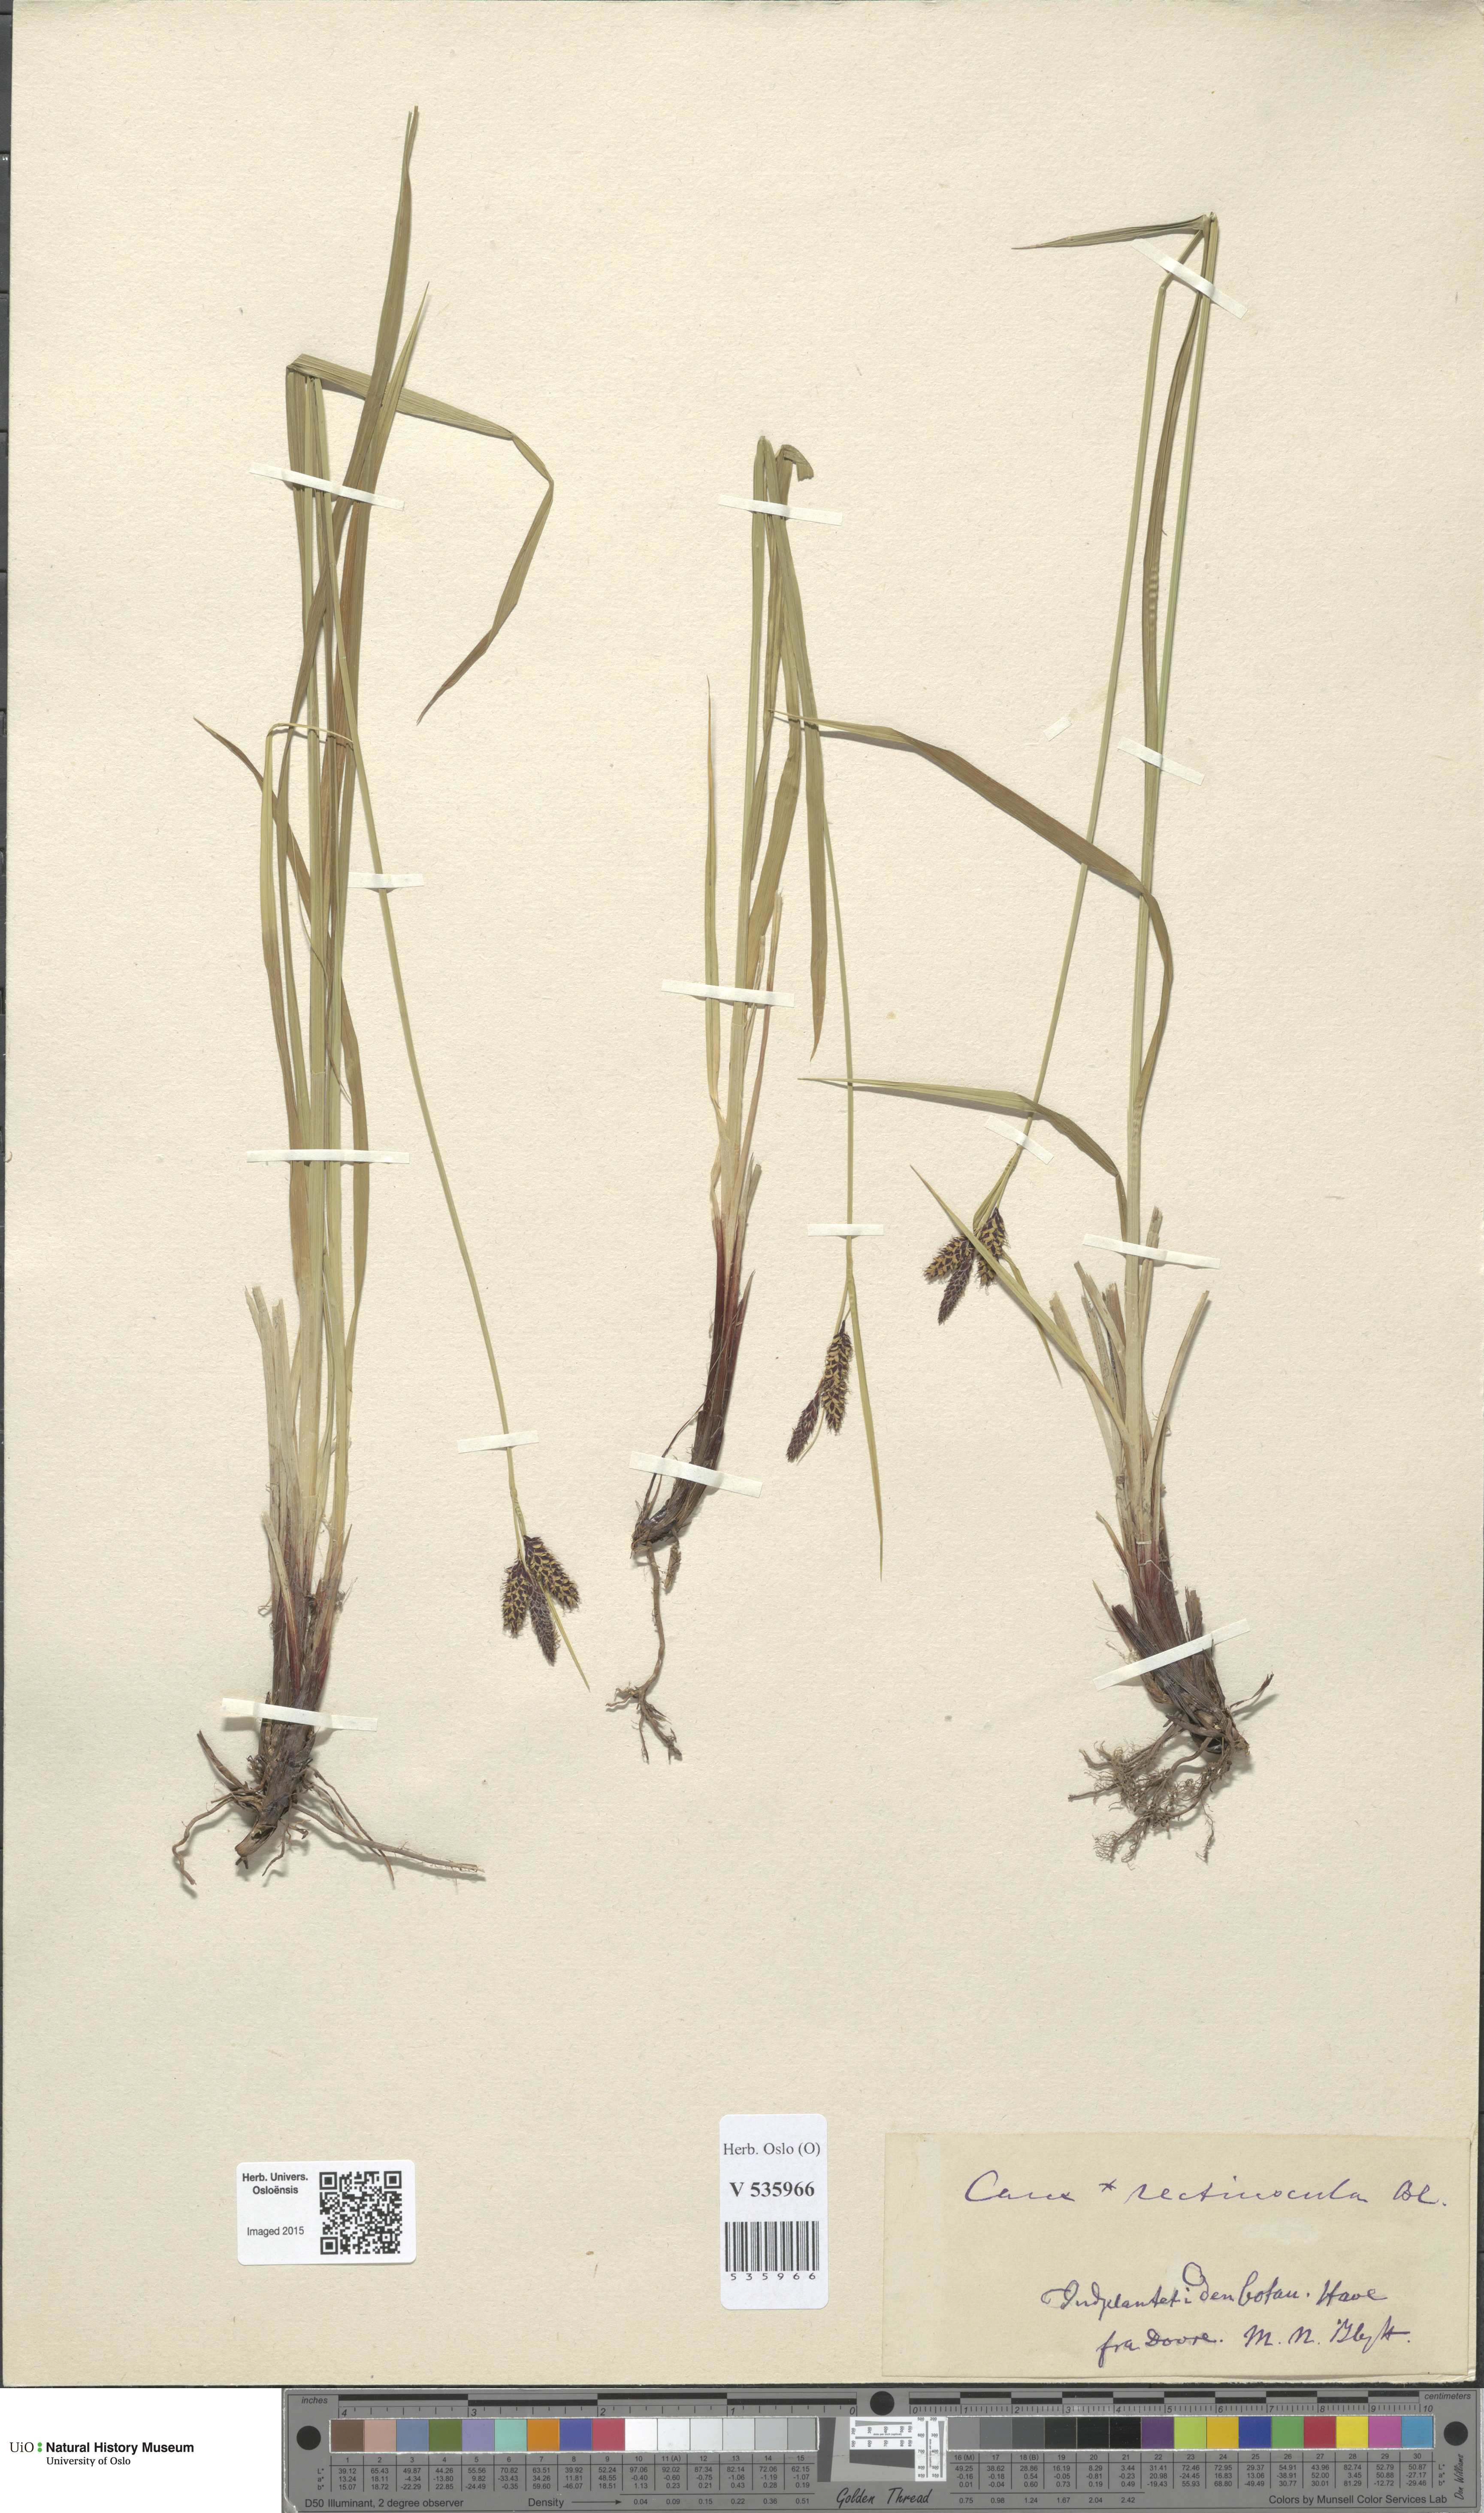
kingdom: Plantae
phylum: Tracheophyta
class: Liliopsida
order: Poales
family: Cyperaceae
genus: Carex
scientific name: Carex
